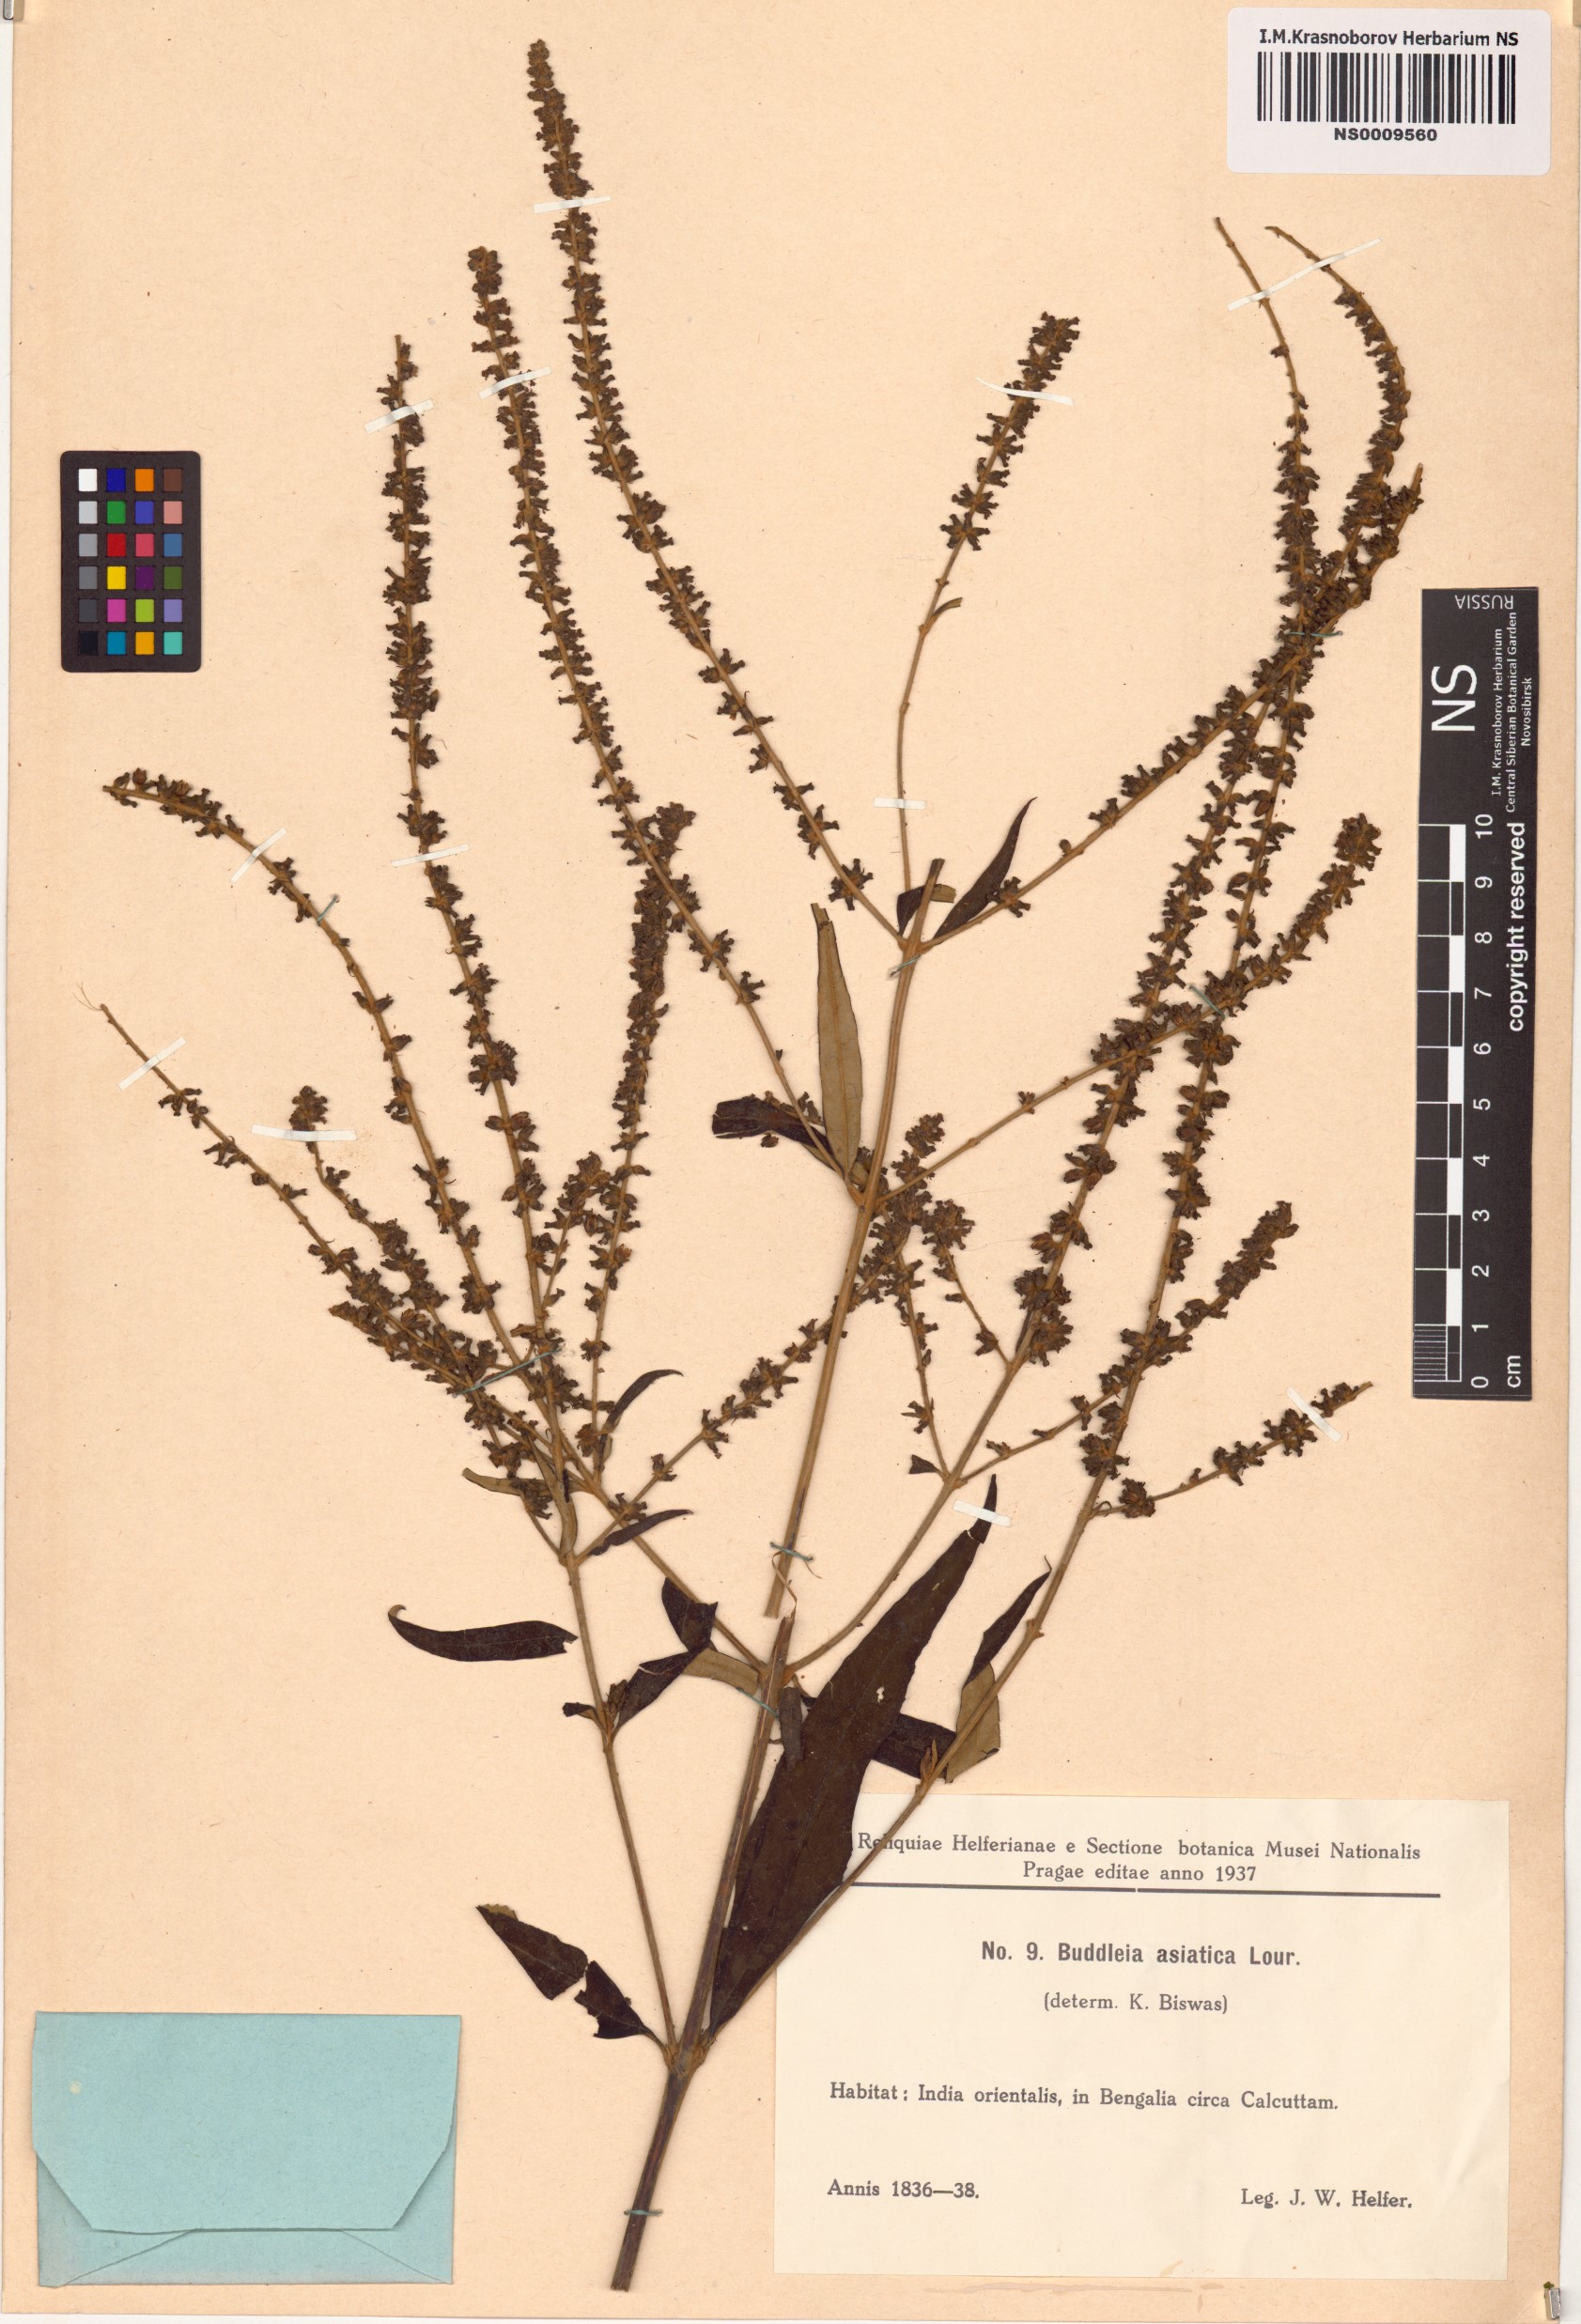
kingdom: Plantae
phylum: Tracheophyta
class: Magnoliopsida
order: Lamiales
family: Scrophulariaceae
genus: Buddleja
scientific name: Buddleja asiatica
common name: Dog tail
